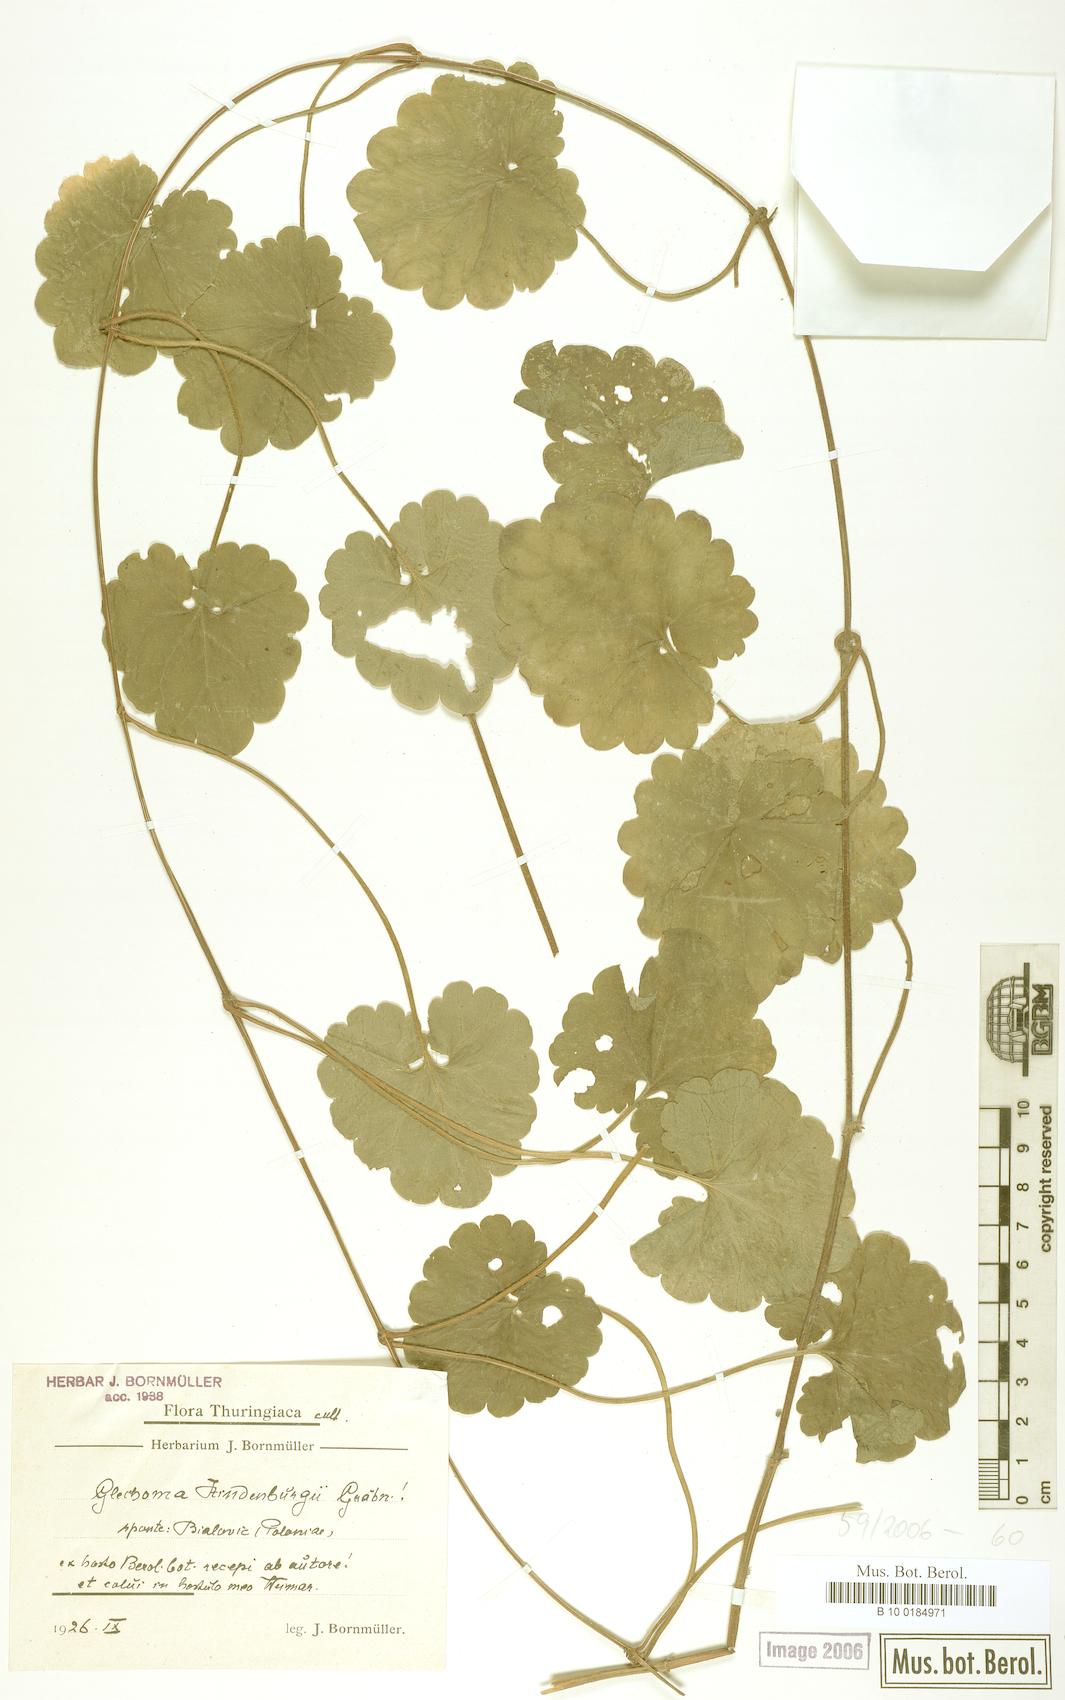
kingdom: Plantae
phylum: Tracheophyta
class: Magnoliopsida
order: Lamiales
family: Lamiaceae
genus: Glechoma
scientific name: Glechoma pannonica
